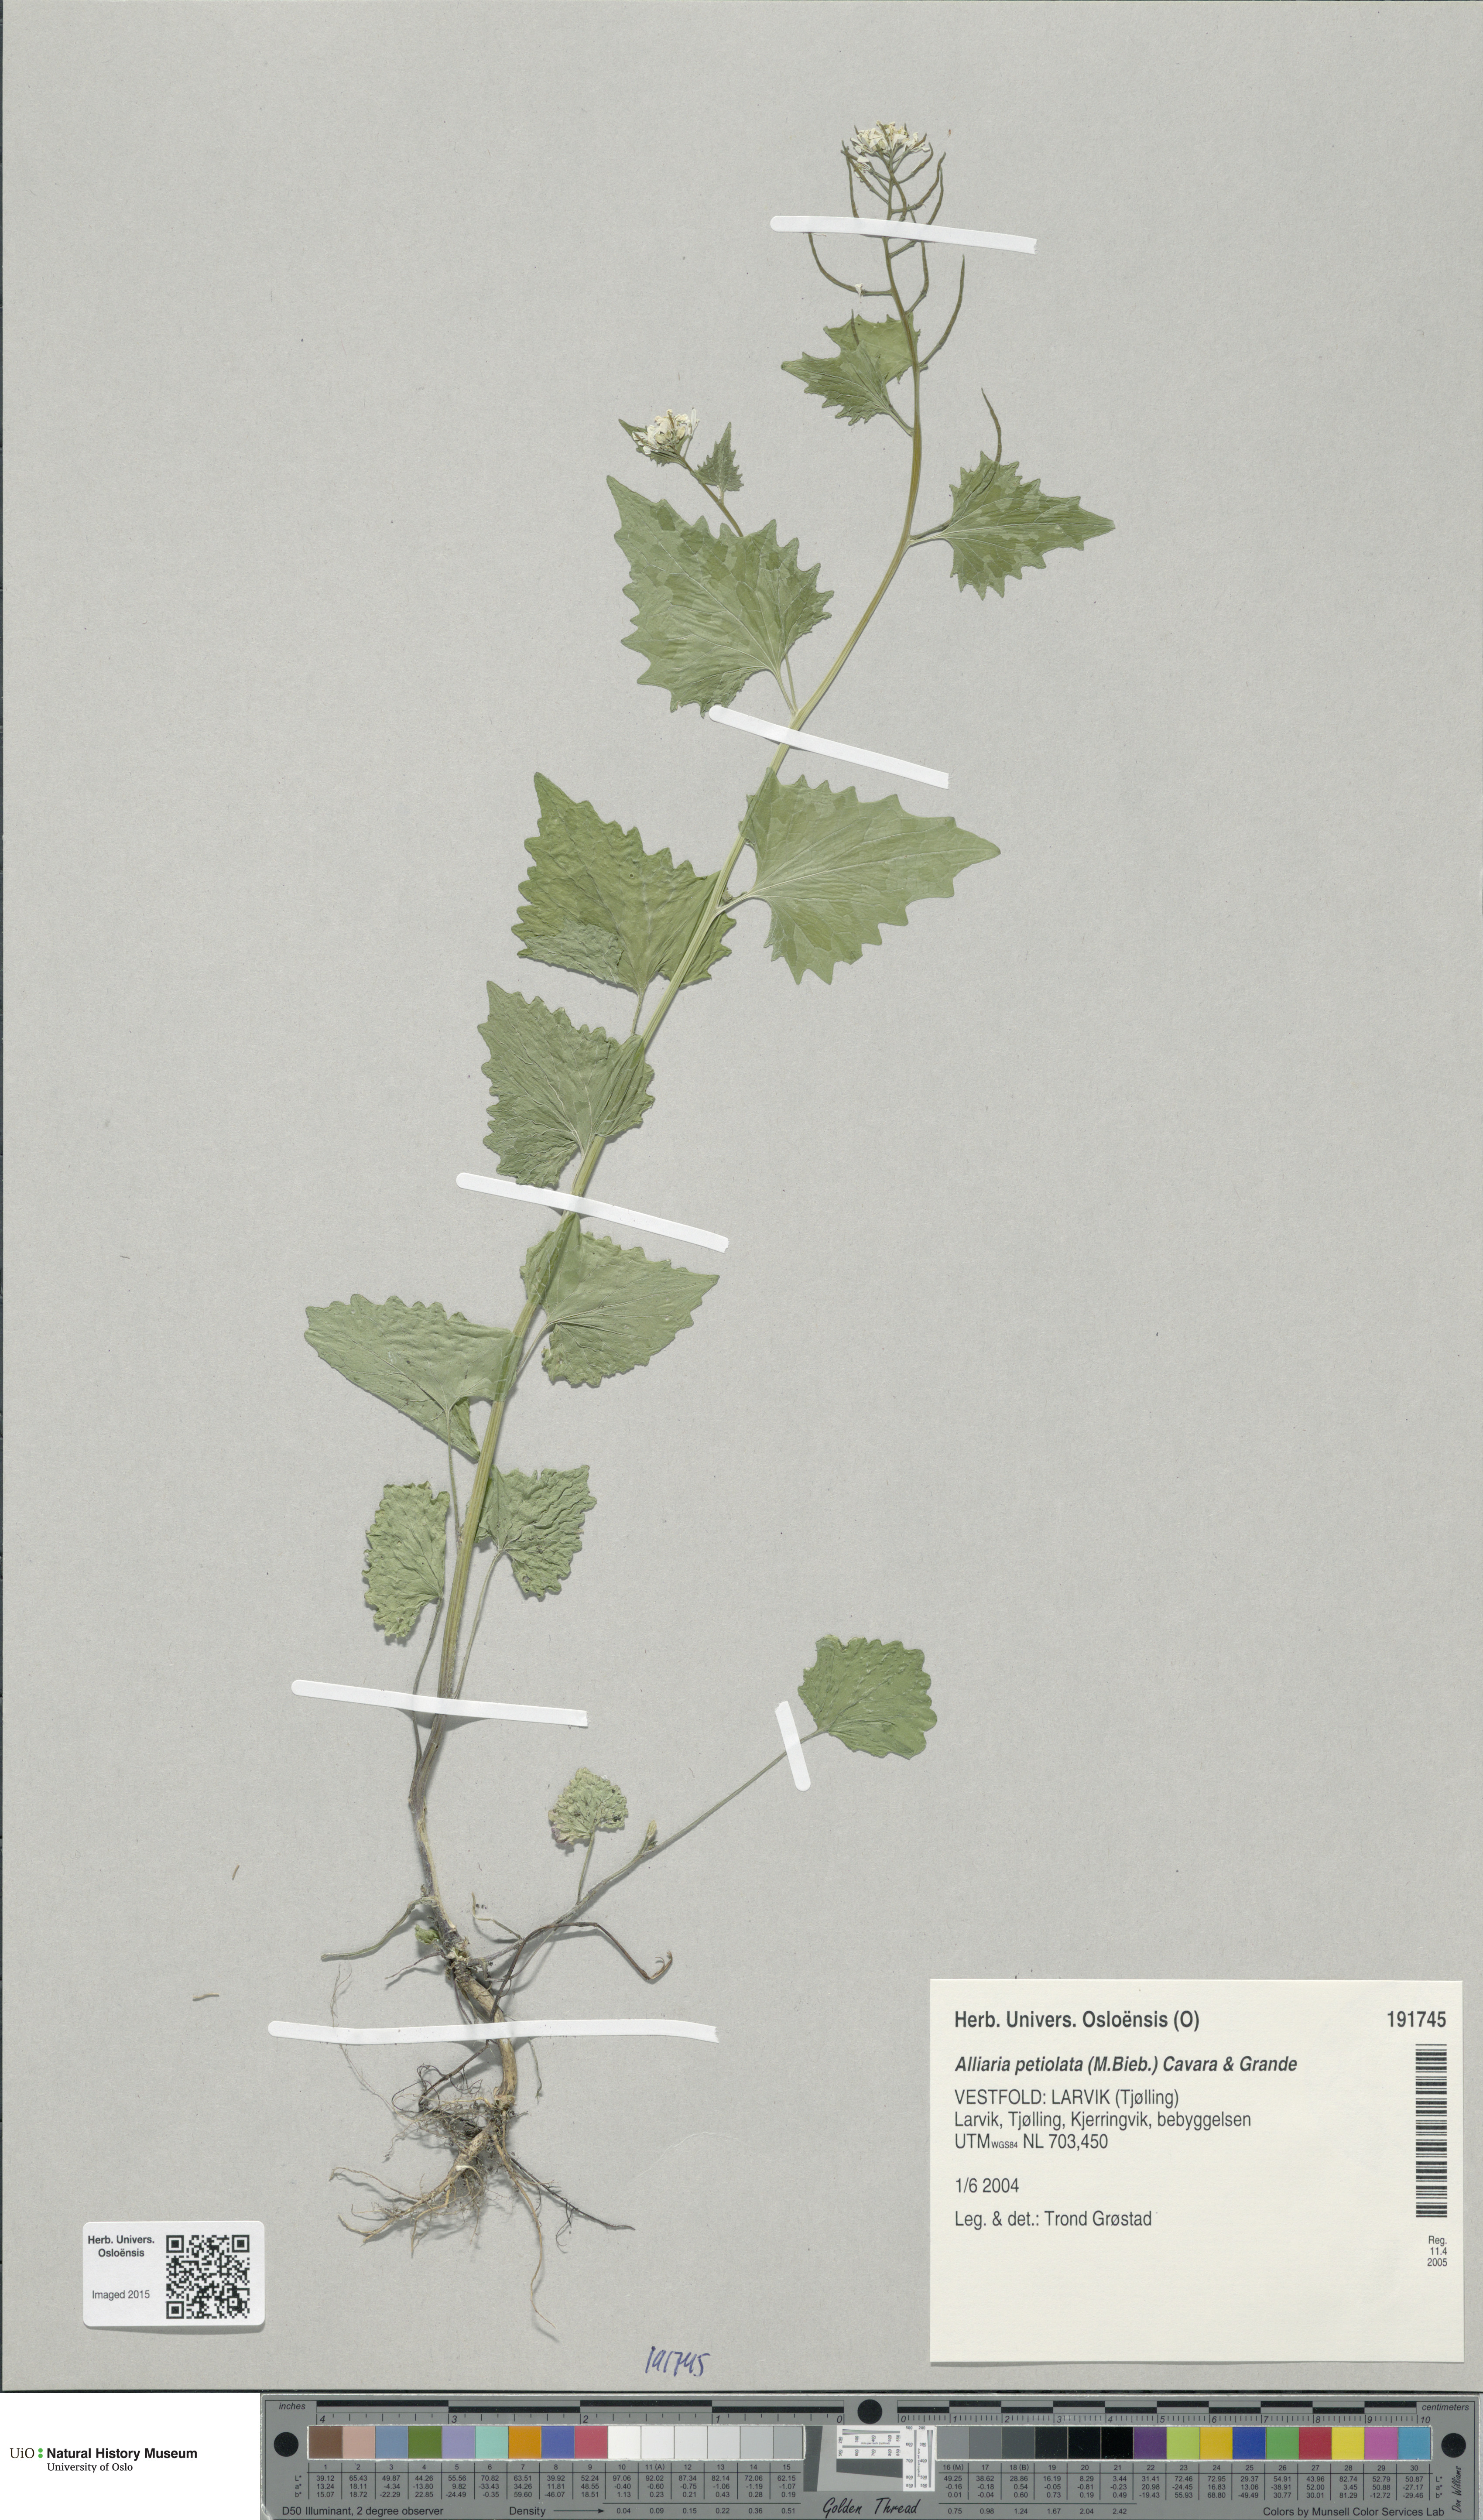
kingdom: Plantae
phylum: Tracheophyta
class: Magnoliopsida
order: Brassicales
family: Brassicaceae
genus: Alliaria
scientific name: Alliaria petiolata
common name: Garlic mustard
